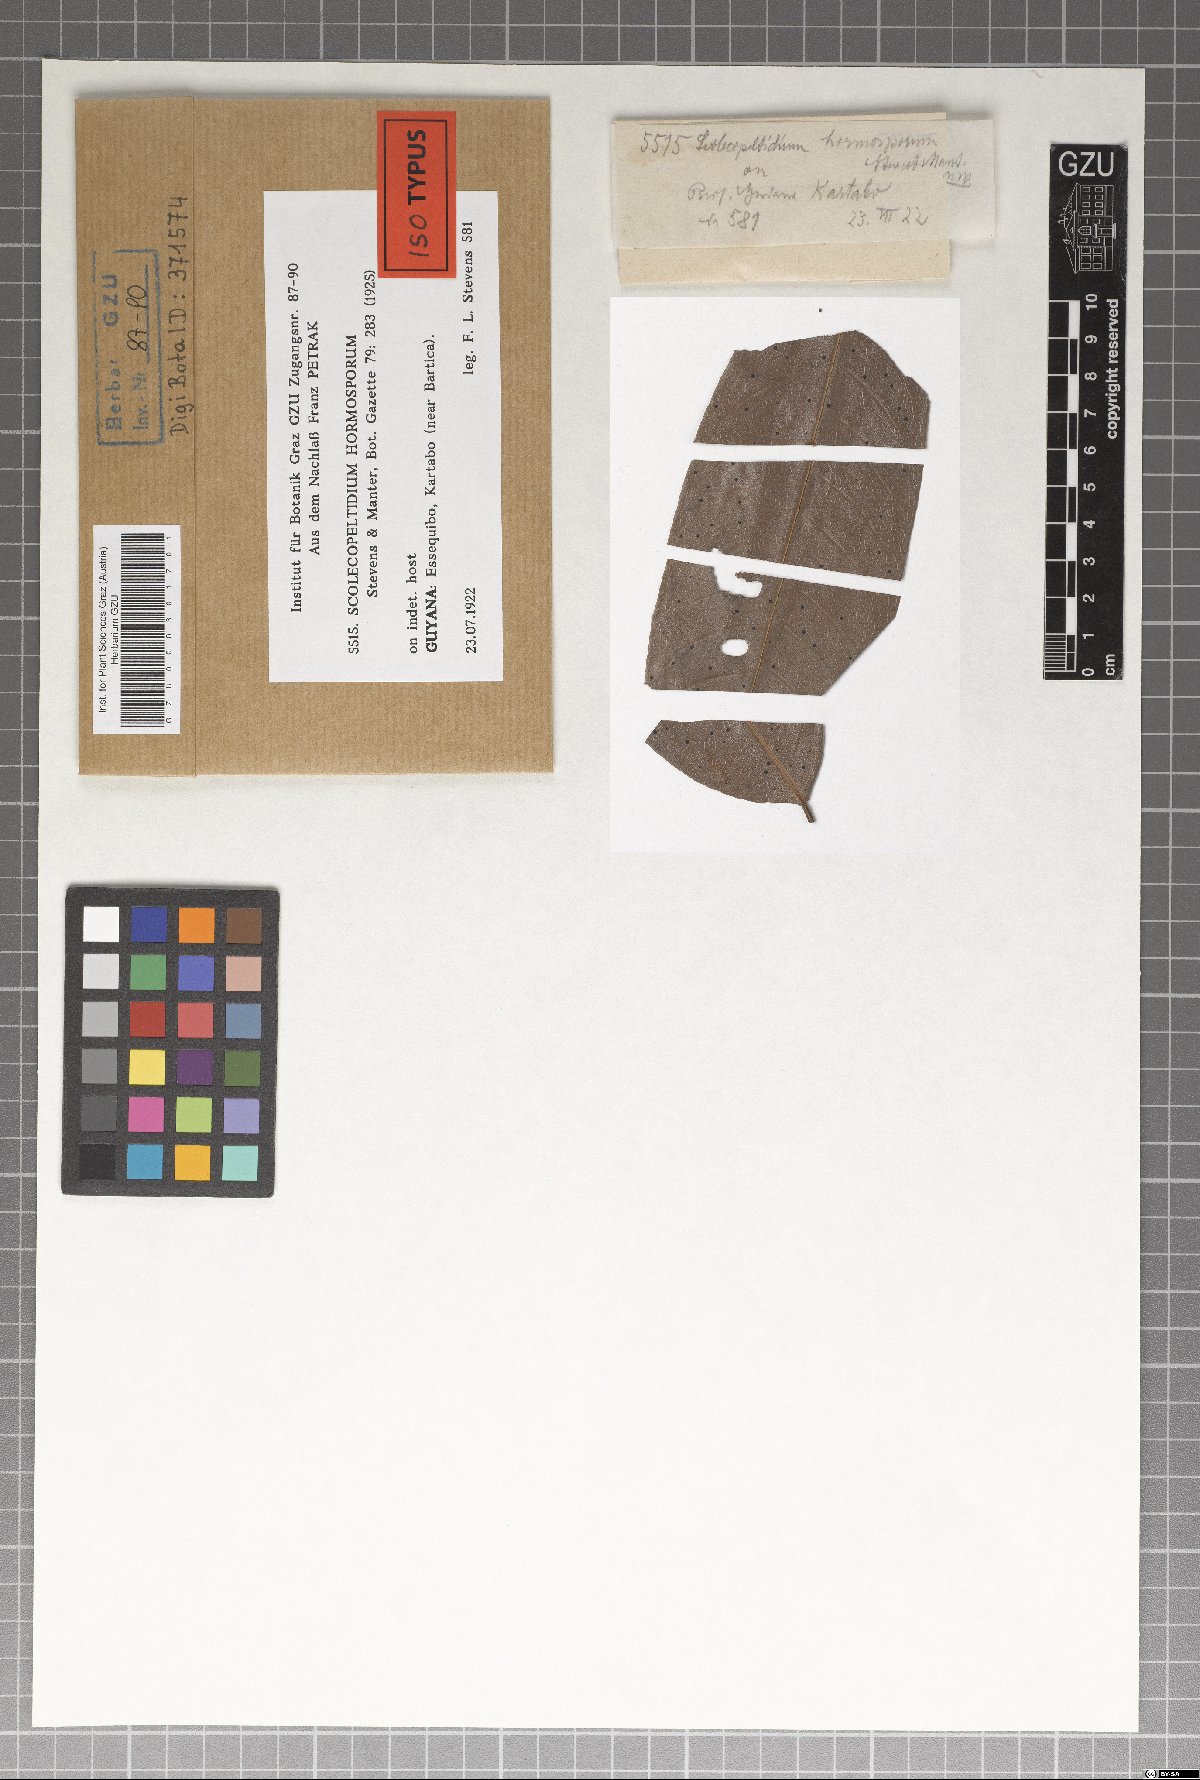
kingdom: Fungi
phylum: Ascomycota
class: Dothideomycetes
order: Microthyriales
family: Microthyriaceae
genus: Scolecopeltidium
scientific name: Scolecopeltidium hormosporum
